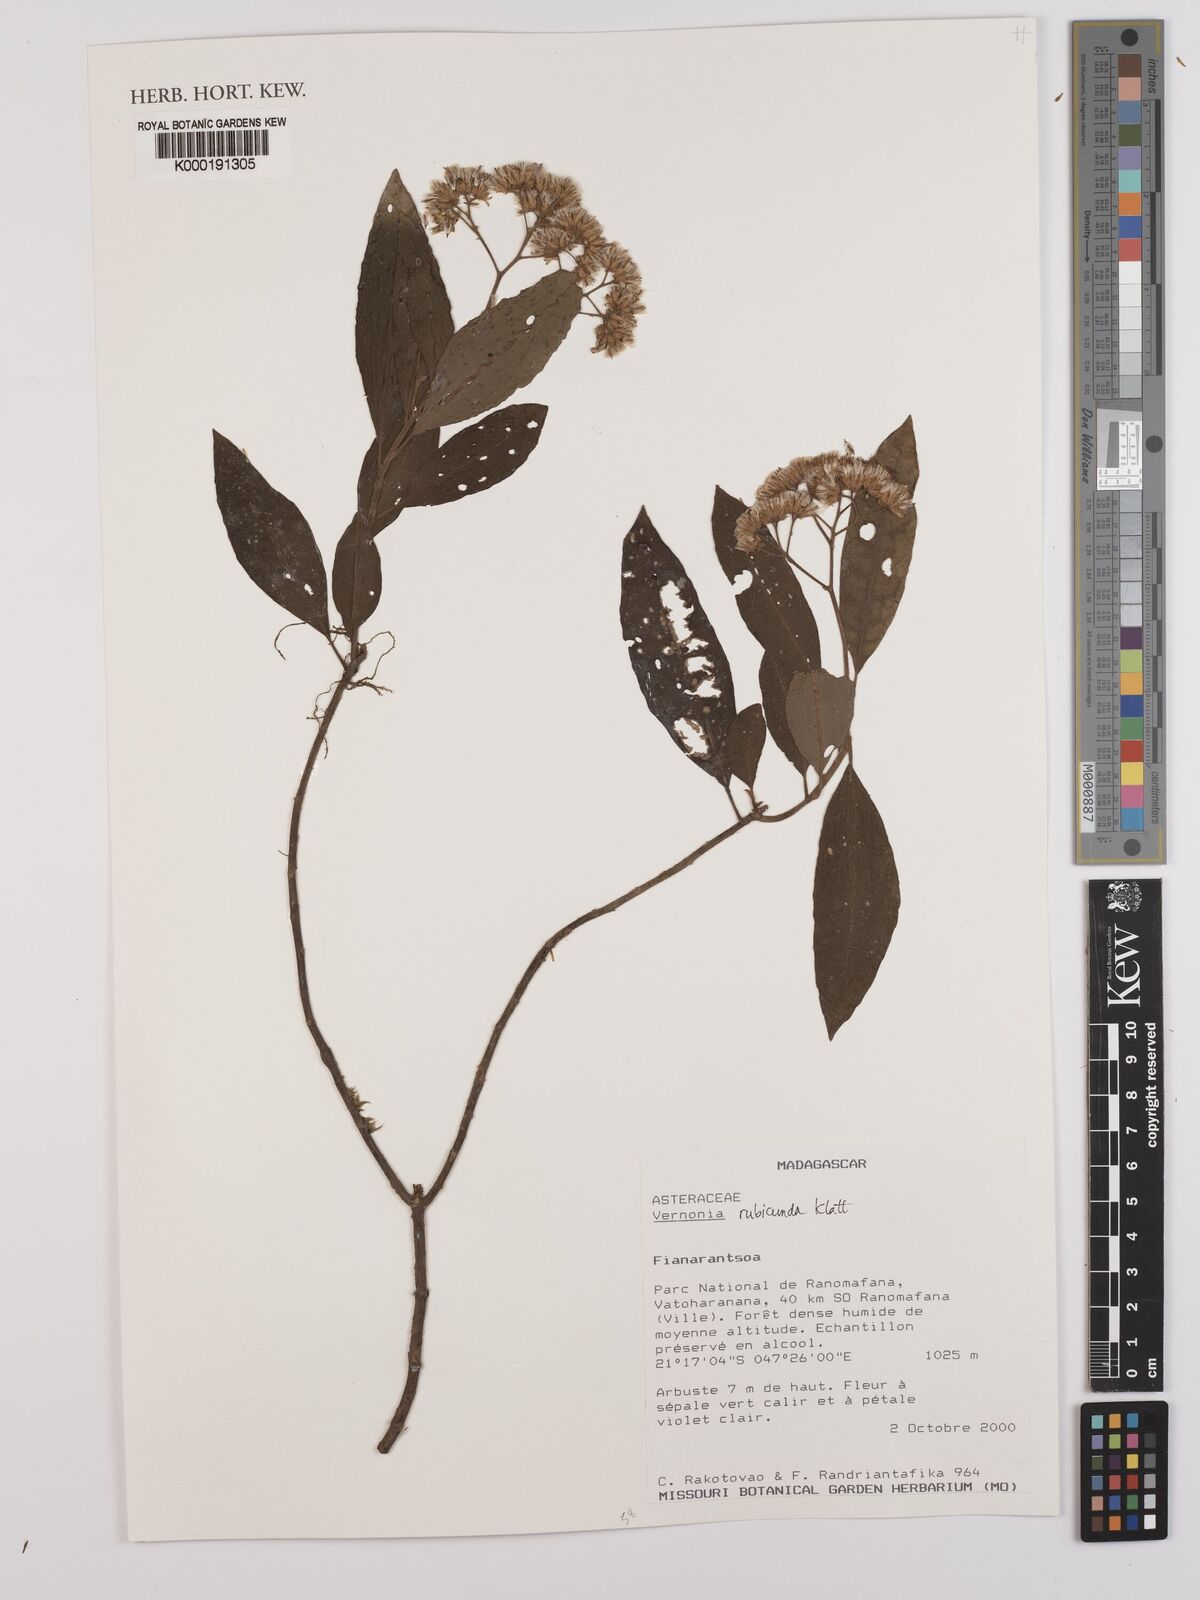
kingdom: Plantae
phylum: Tracheophyta
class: Magnoliopsida
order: Asterales
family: Asteraceae
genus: Jeffreycia
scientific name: Jeffreycia hildebrandtii
